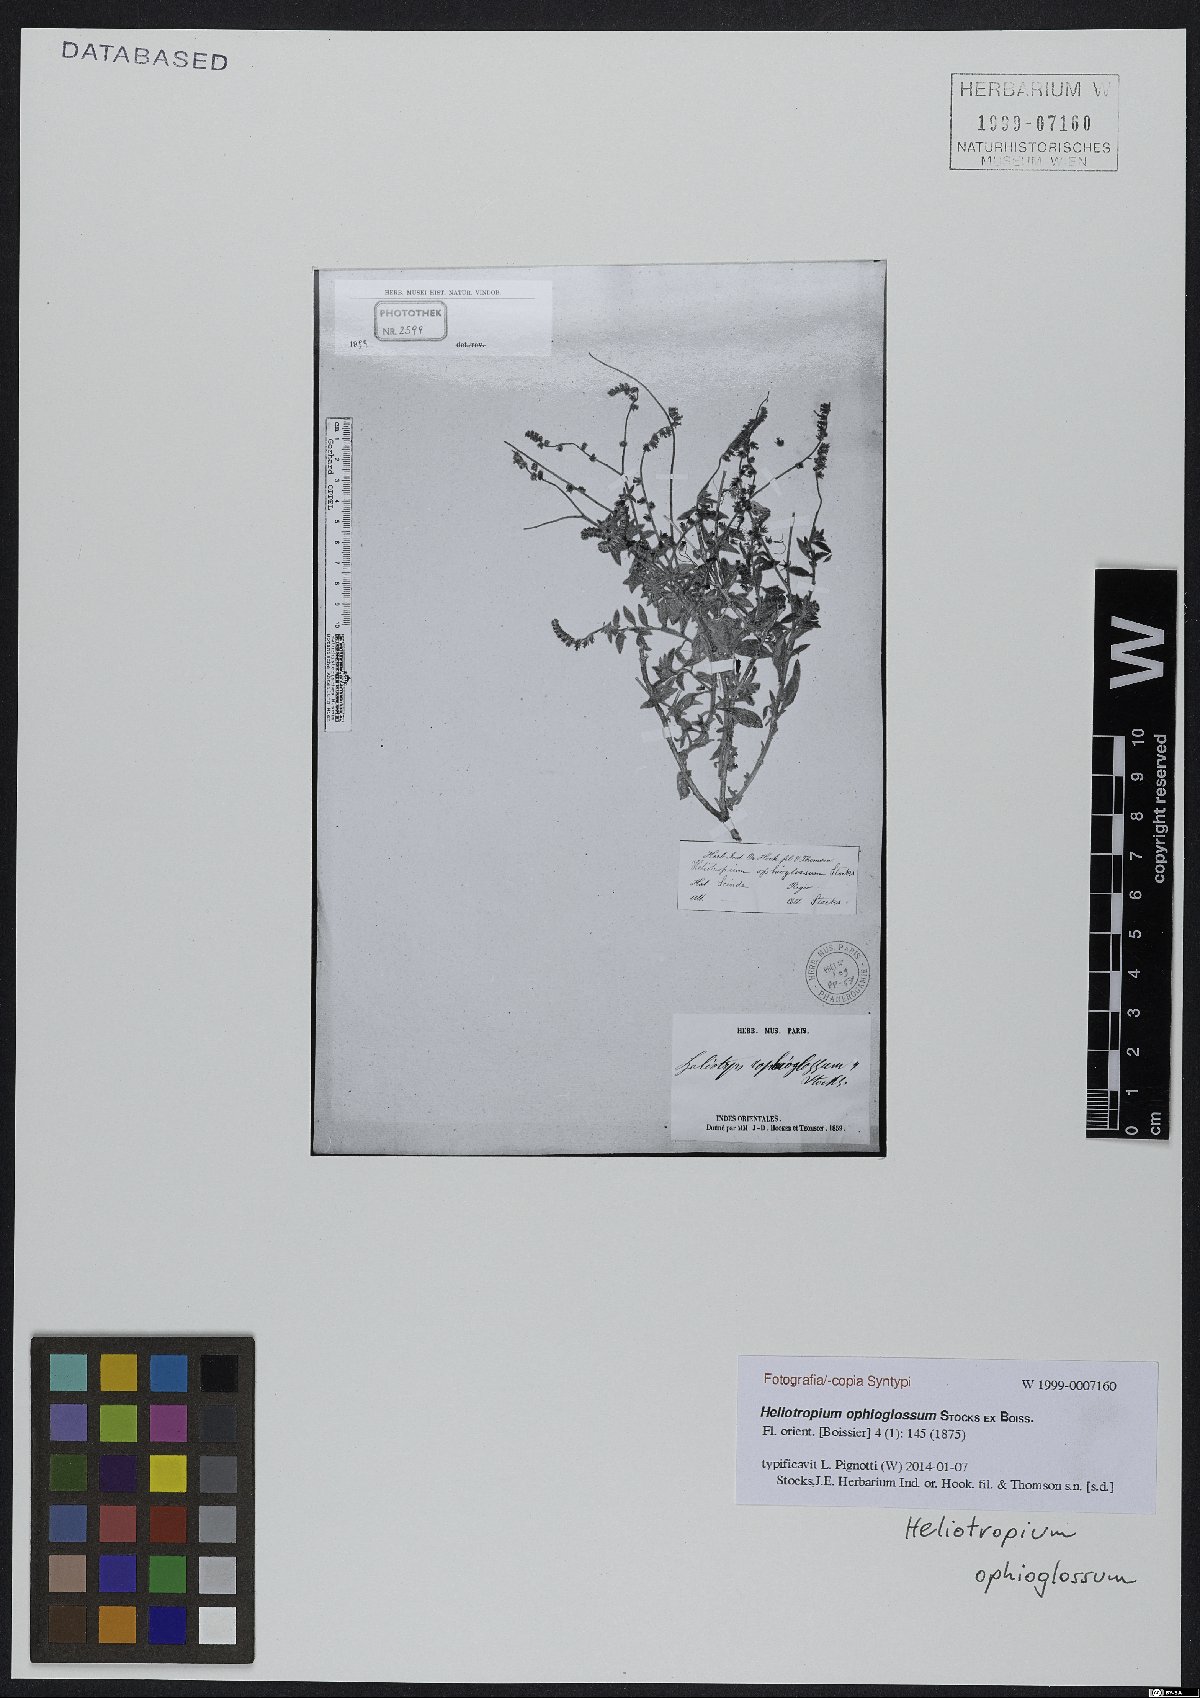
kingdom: Plantae
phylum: Tracheophyta
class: Magnoliopsida
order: Boraginales
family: Heliotropiaceae
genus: Heliotropium
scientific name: Heliotropium ophioglossum
